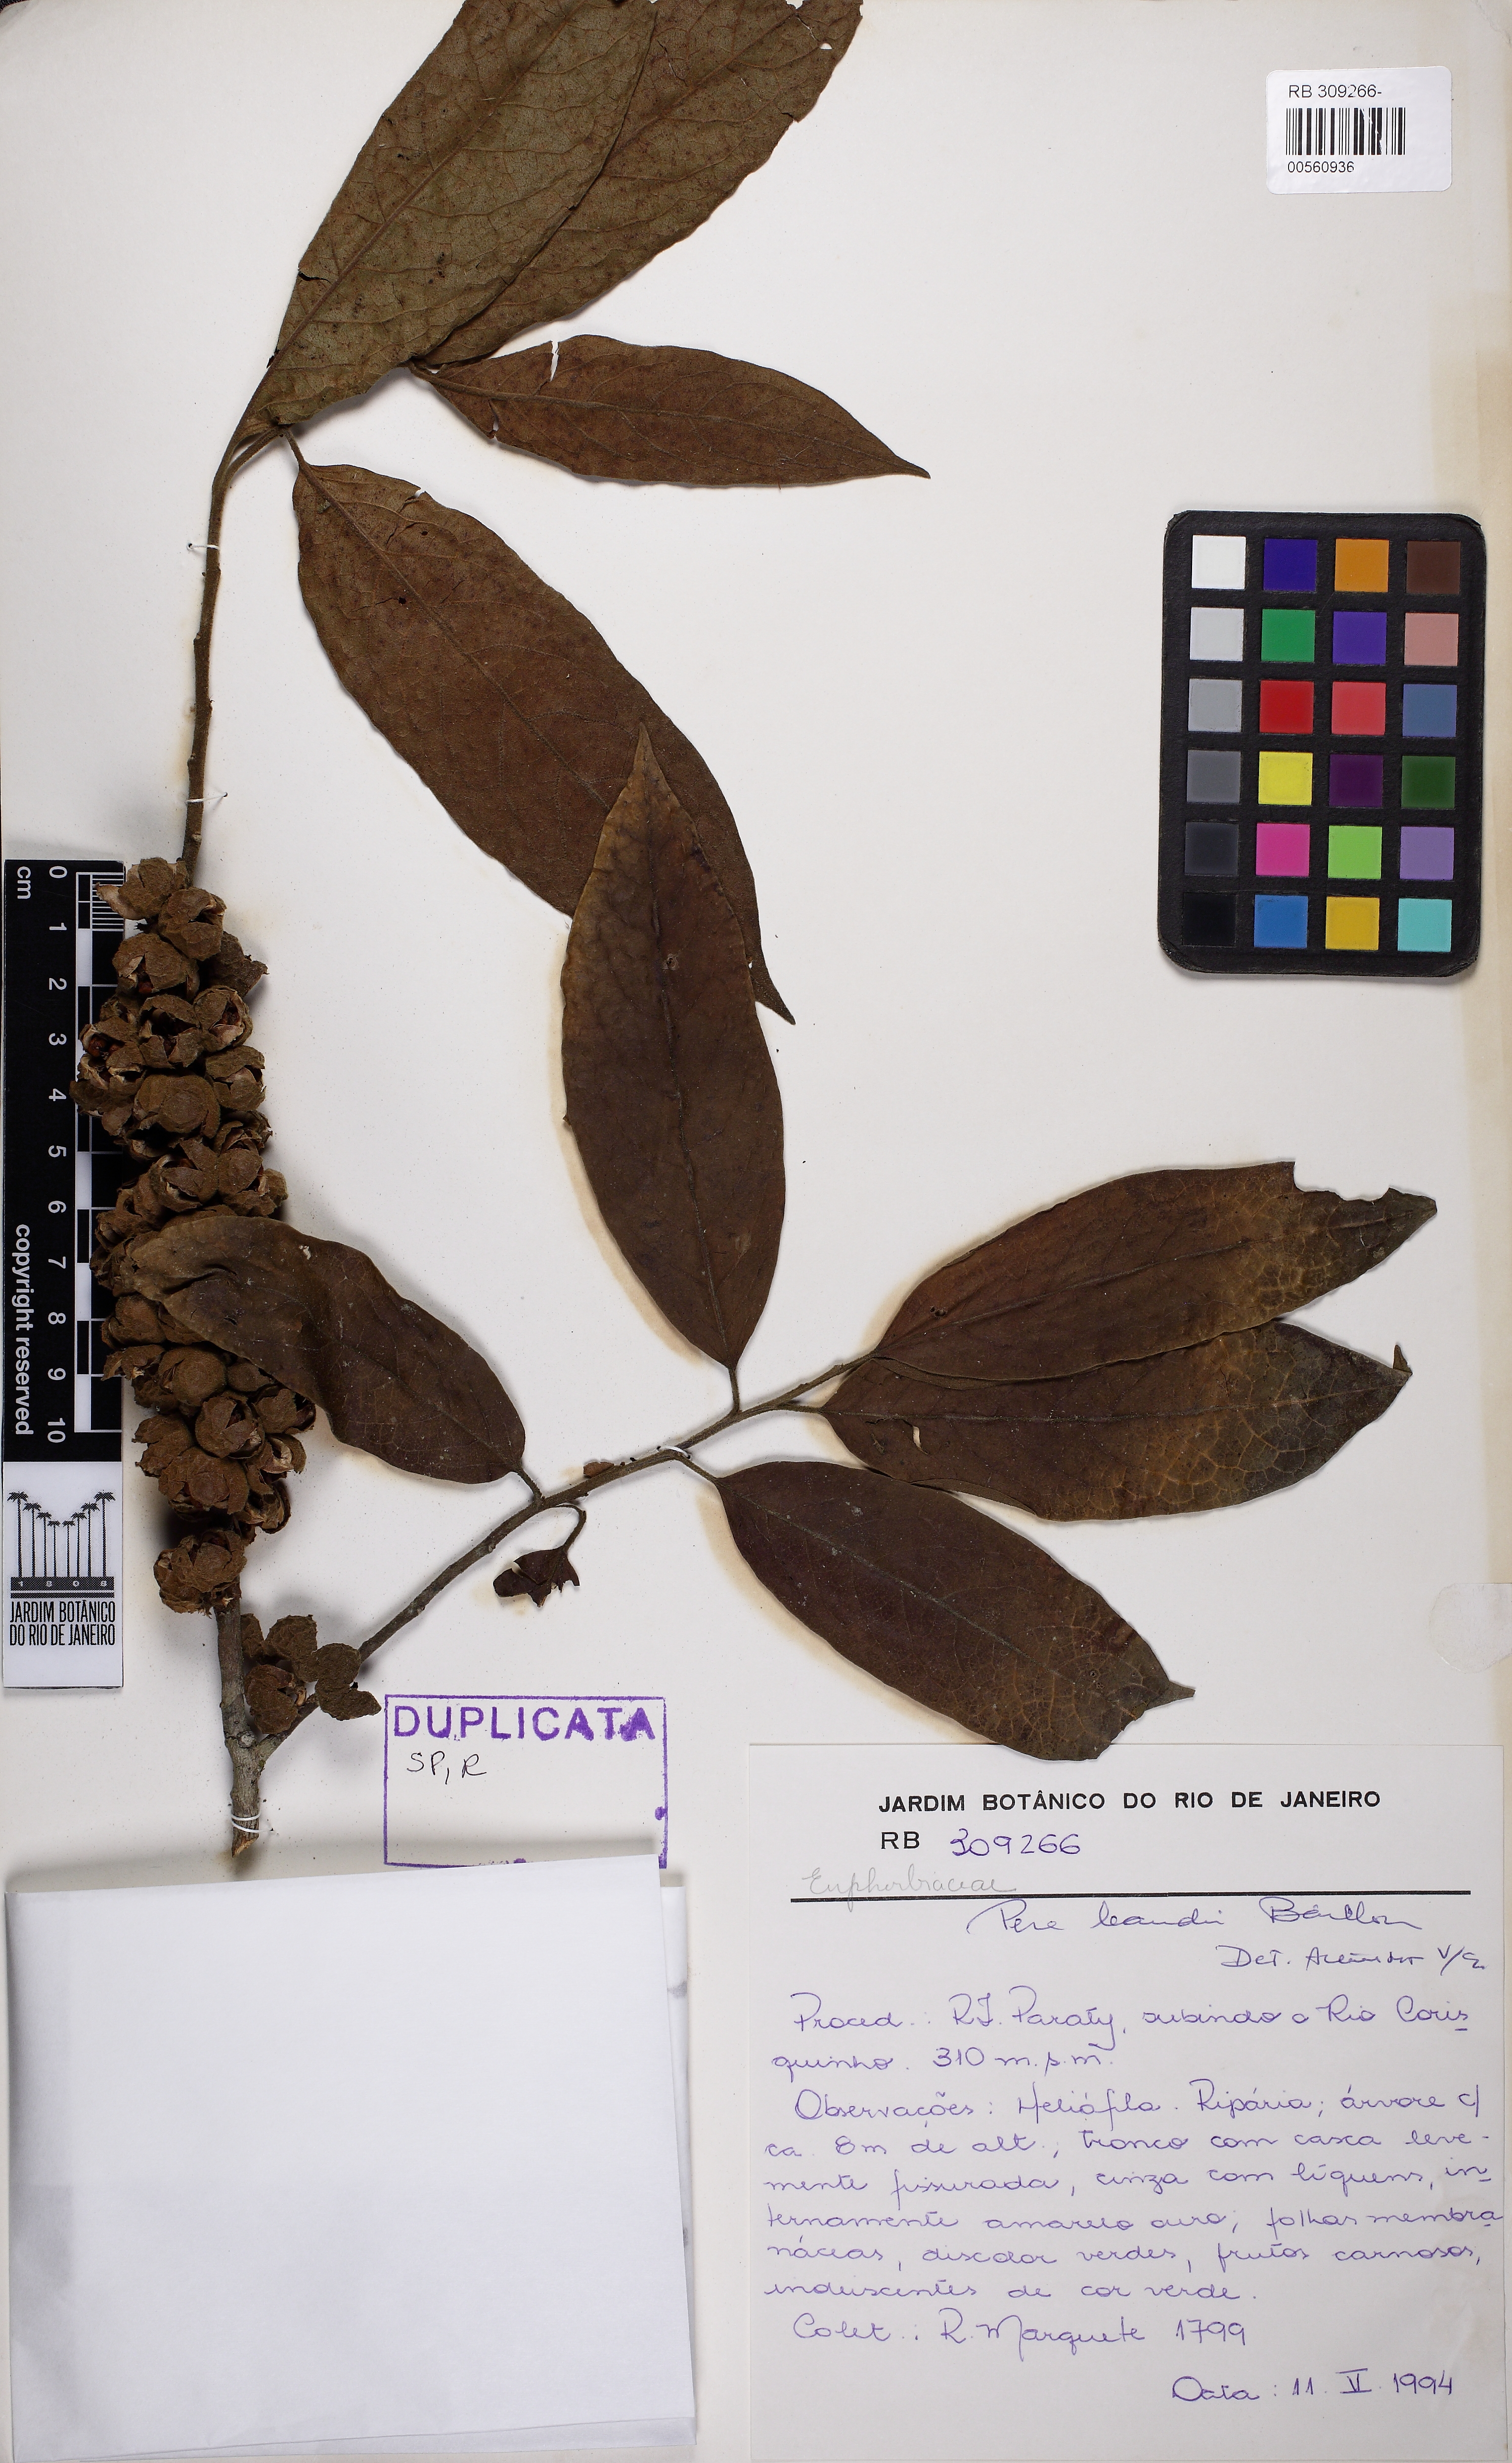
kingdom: Plantae
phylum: Tracheophyta
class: Magnoliopsida
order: Malpighiales
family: Peraceae
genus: Pera
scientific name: Pera heteranthera
